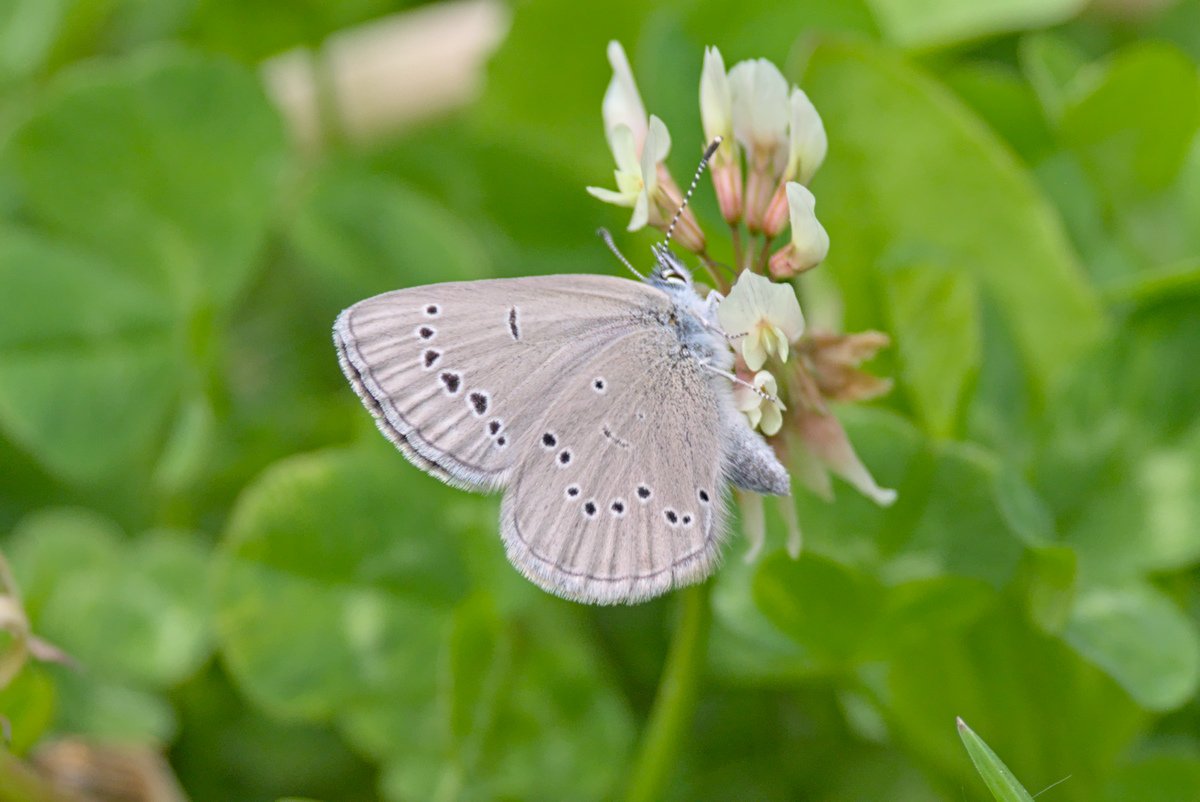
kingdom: Animalia
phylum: Arthropoda
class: Insecta
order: Lepidoptera
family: Lycaenidae
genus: Glaucopsyche
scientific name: Glaucopsyche lygdamus
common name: Silvery Blue
